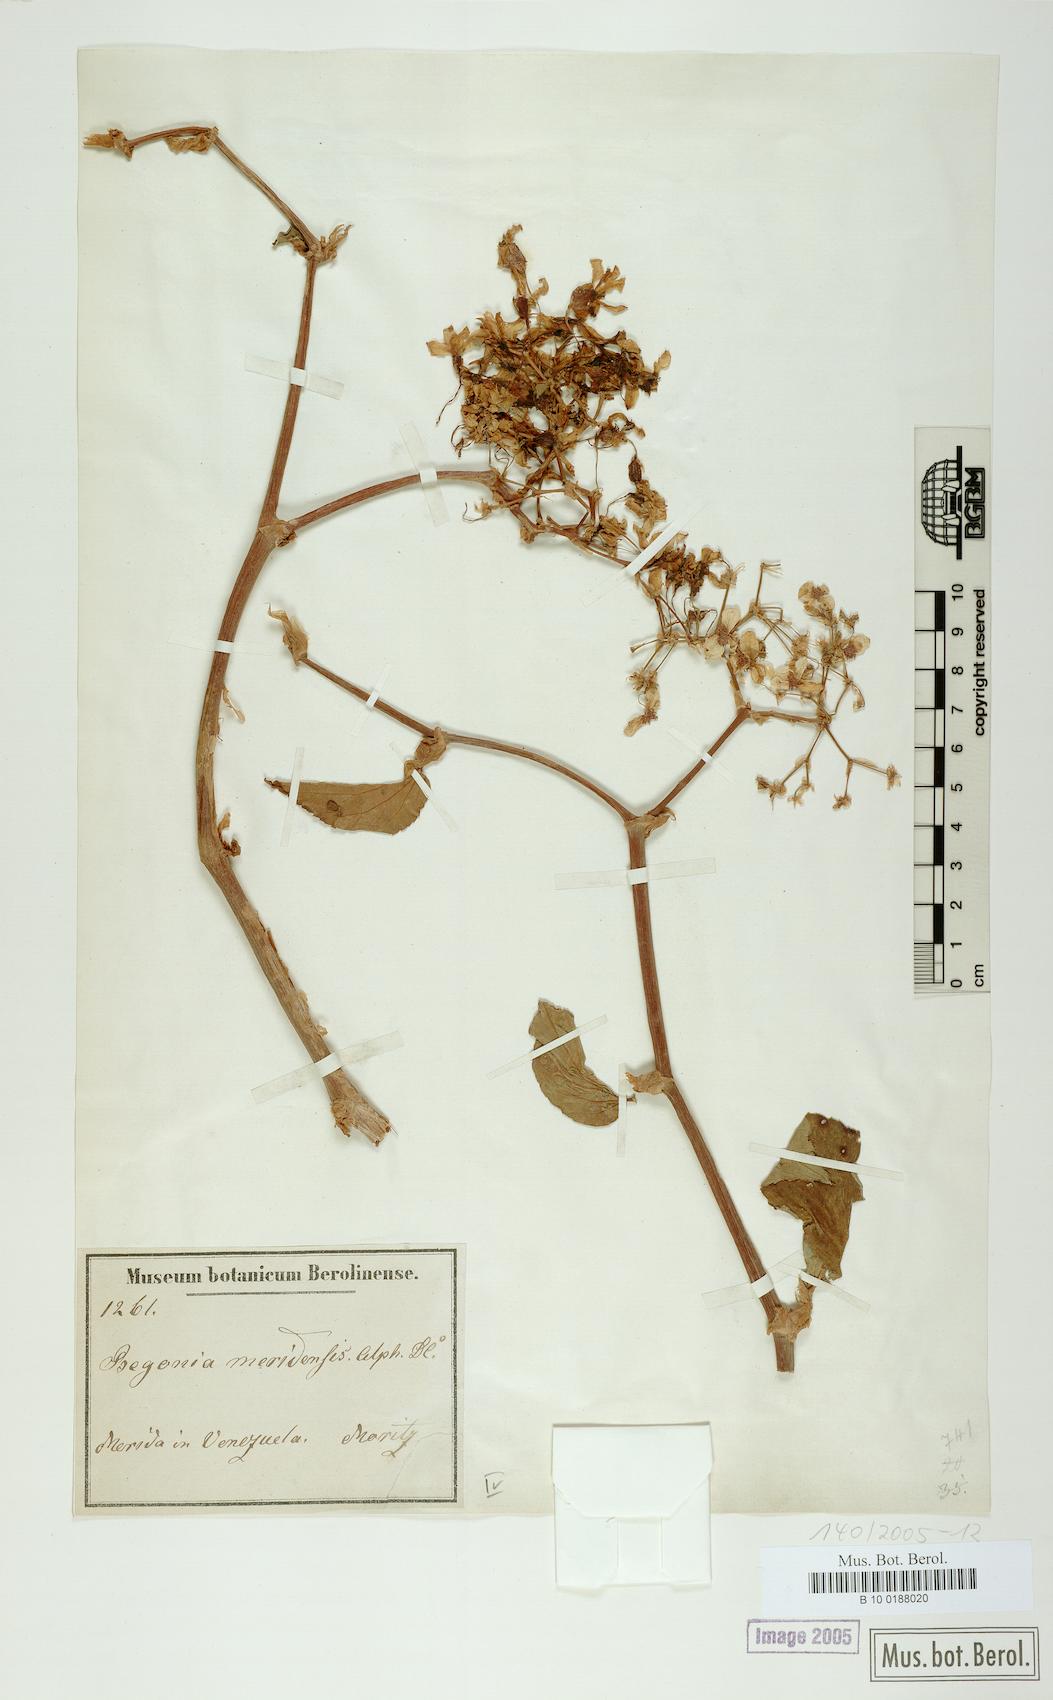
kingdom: Plantae
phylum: Tracheophyta
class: Magnoliopsida
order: Cucurbitales
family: Begoniaceae
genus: Begonia
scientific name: Begonia meridensis
